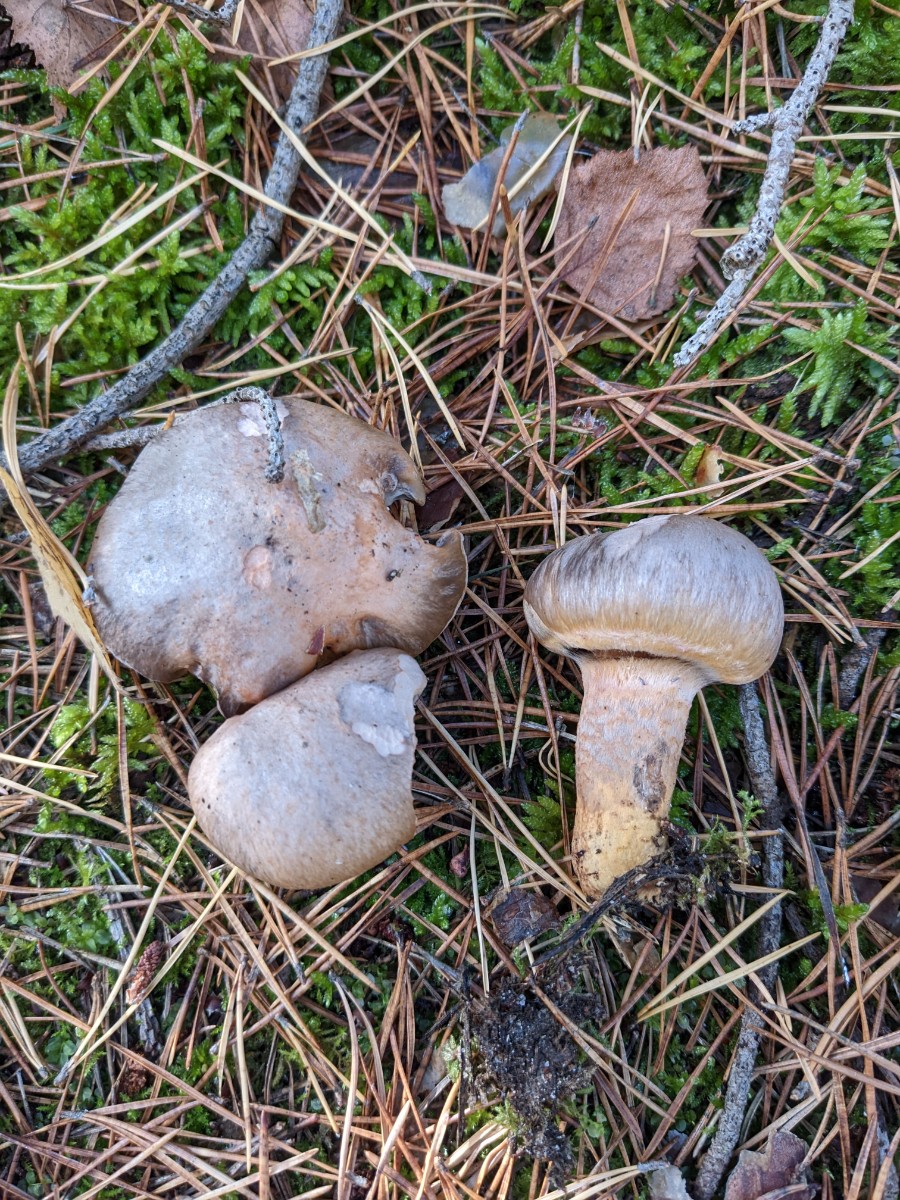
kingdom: Fungi
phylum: Basidiomycota
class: Agaricomycetes
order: Boletales
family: Gomphidiaceae
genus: Chroogomphus
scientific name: Chroogomphus rutilus
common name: brunrød slimslør
